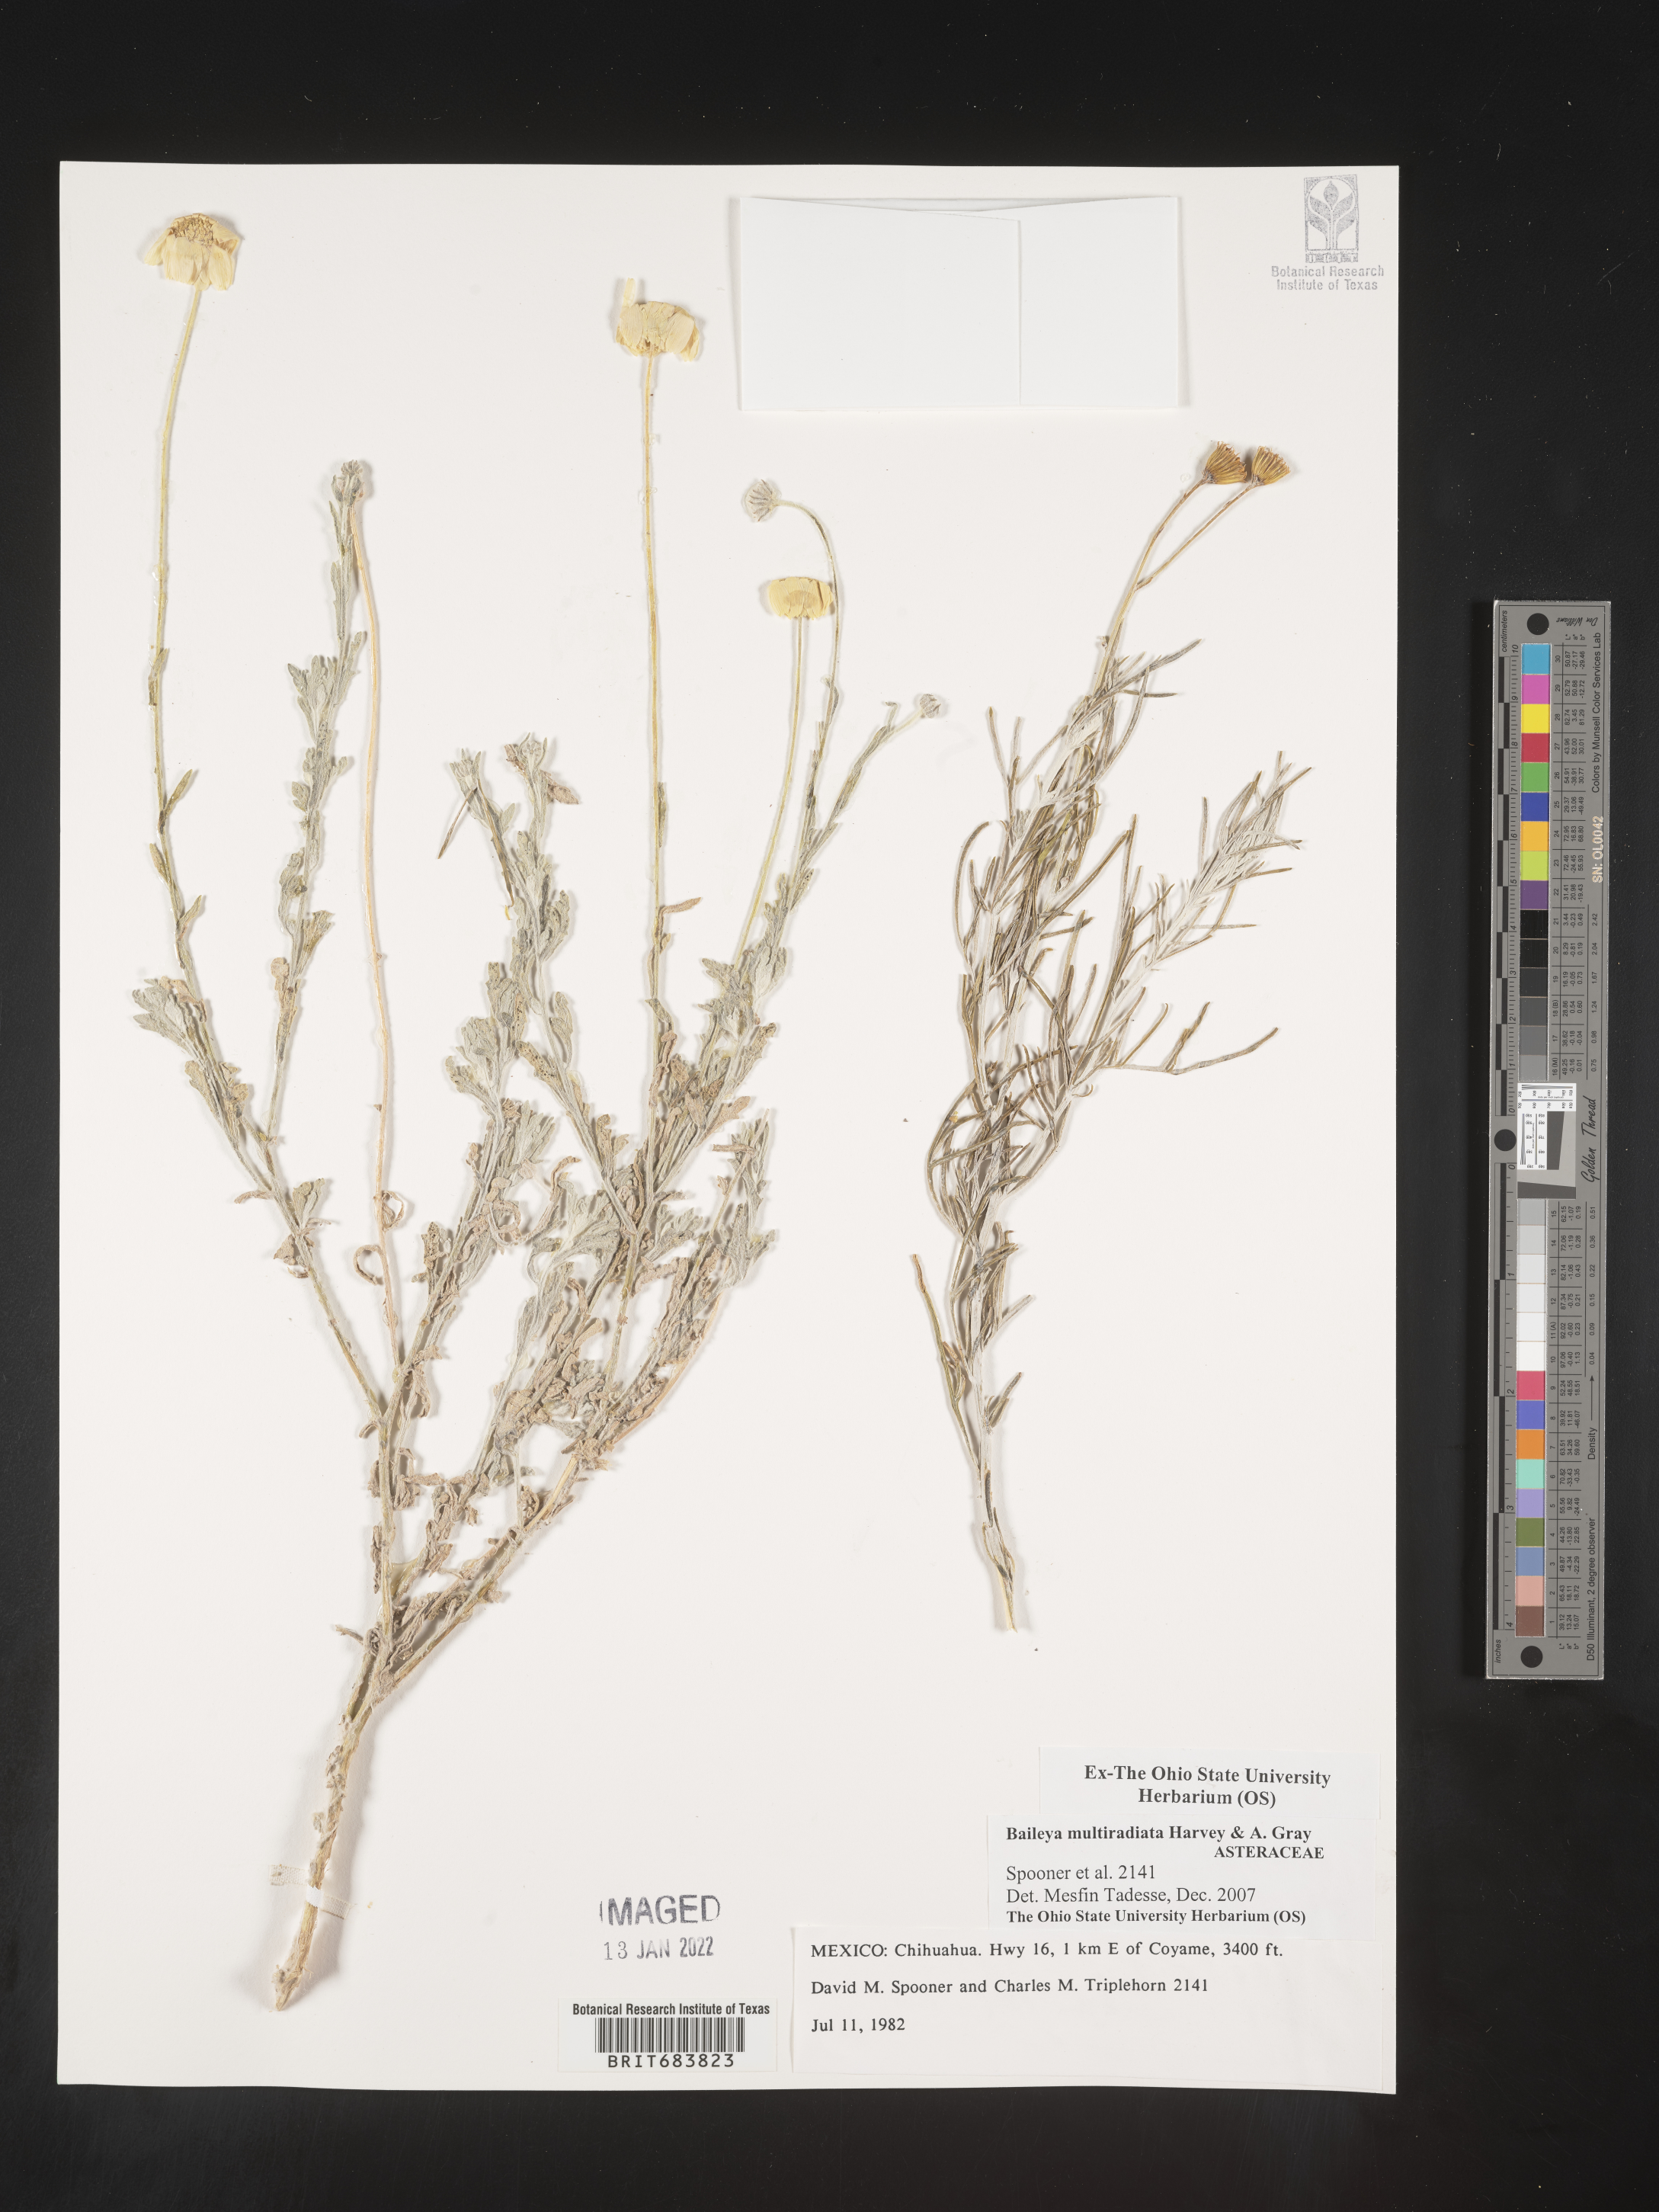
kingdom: Plantae
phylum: Tracheophyta
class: Magnoliopsida
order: Asterales
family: Asteraceae
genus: Baileya
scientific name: Baileya
